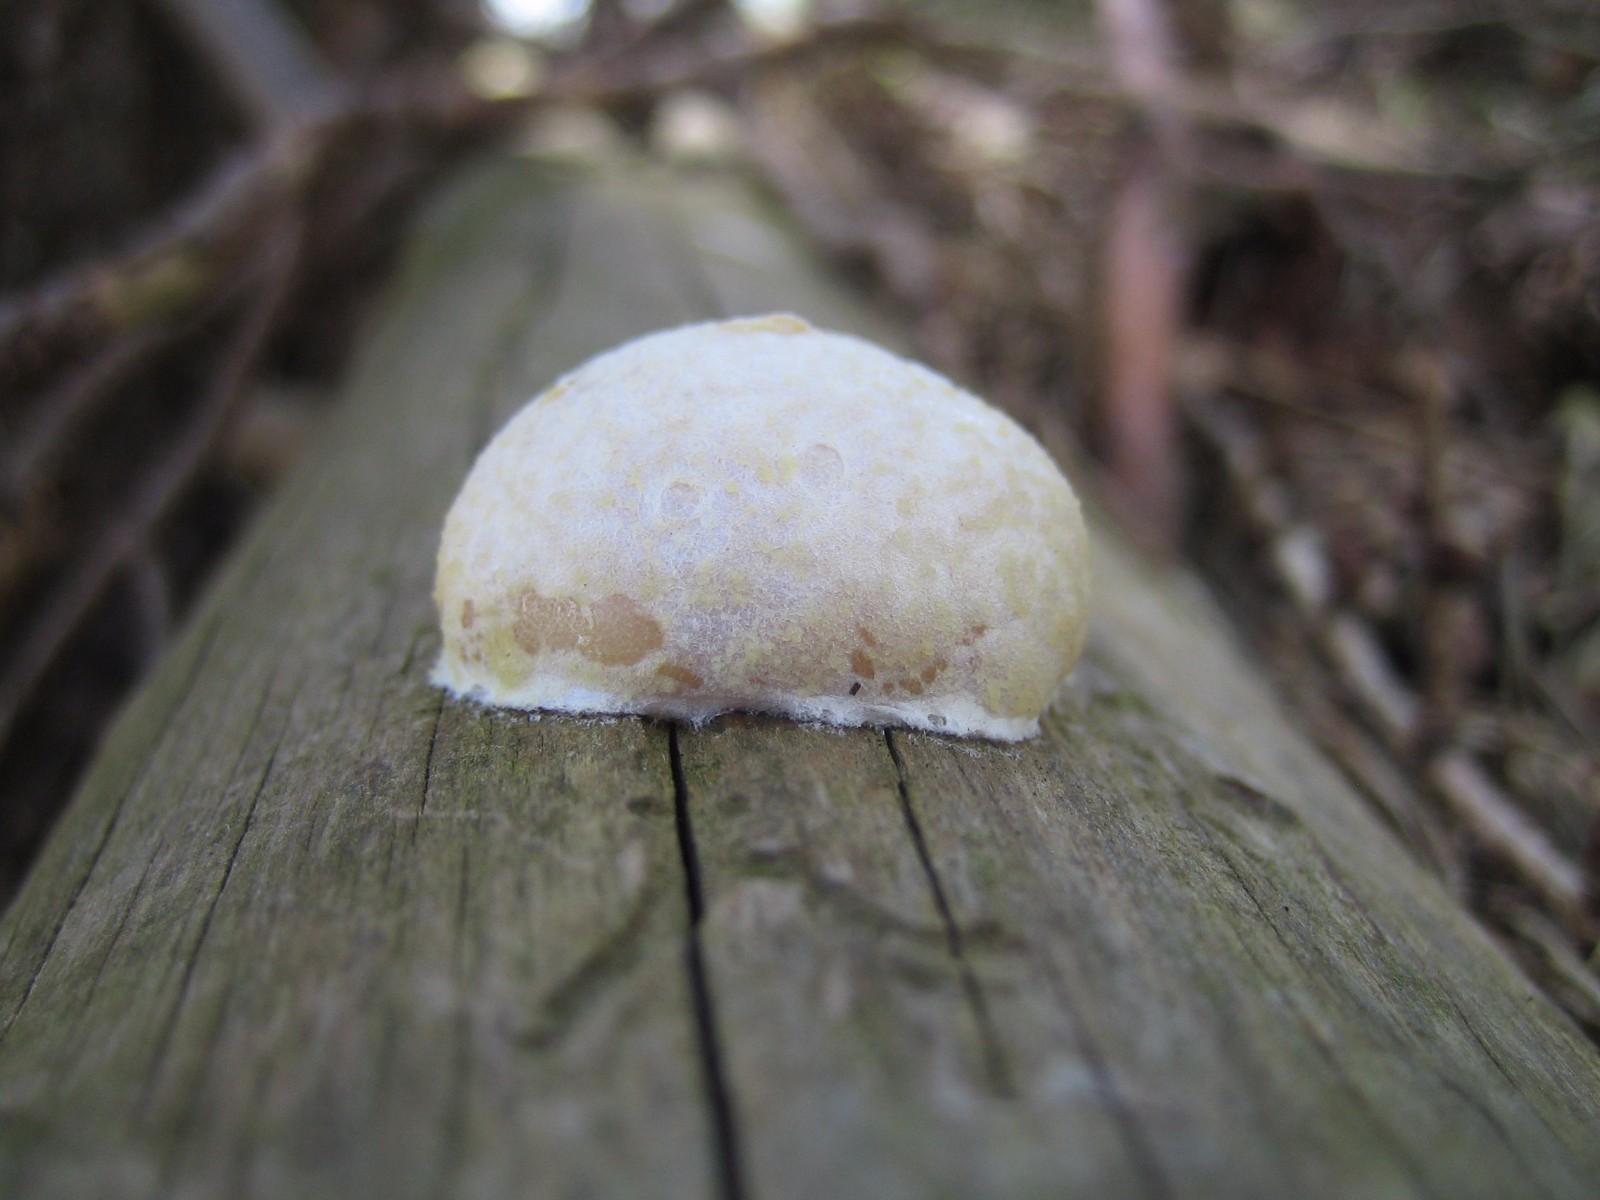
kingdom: Protozoa
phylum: Mycetozoa
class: Myxomycetes
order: Cribrariales
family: Tubiferaceae
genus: Reticularia
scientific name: Reticularia lycoperdon
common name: skinnende støvpude
